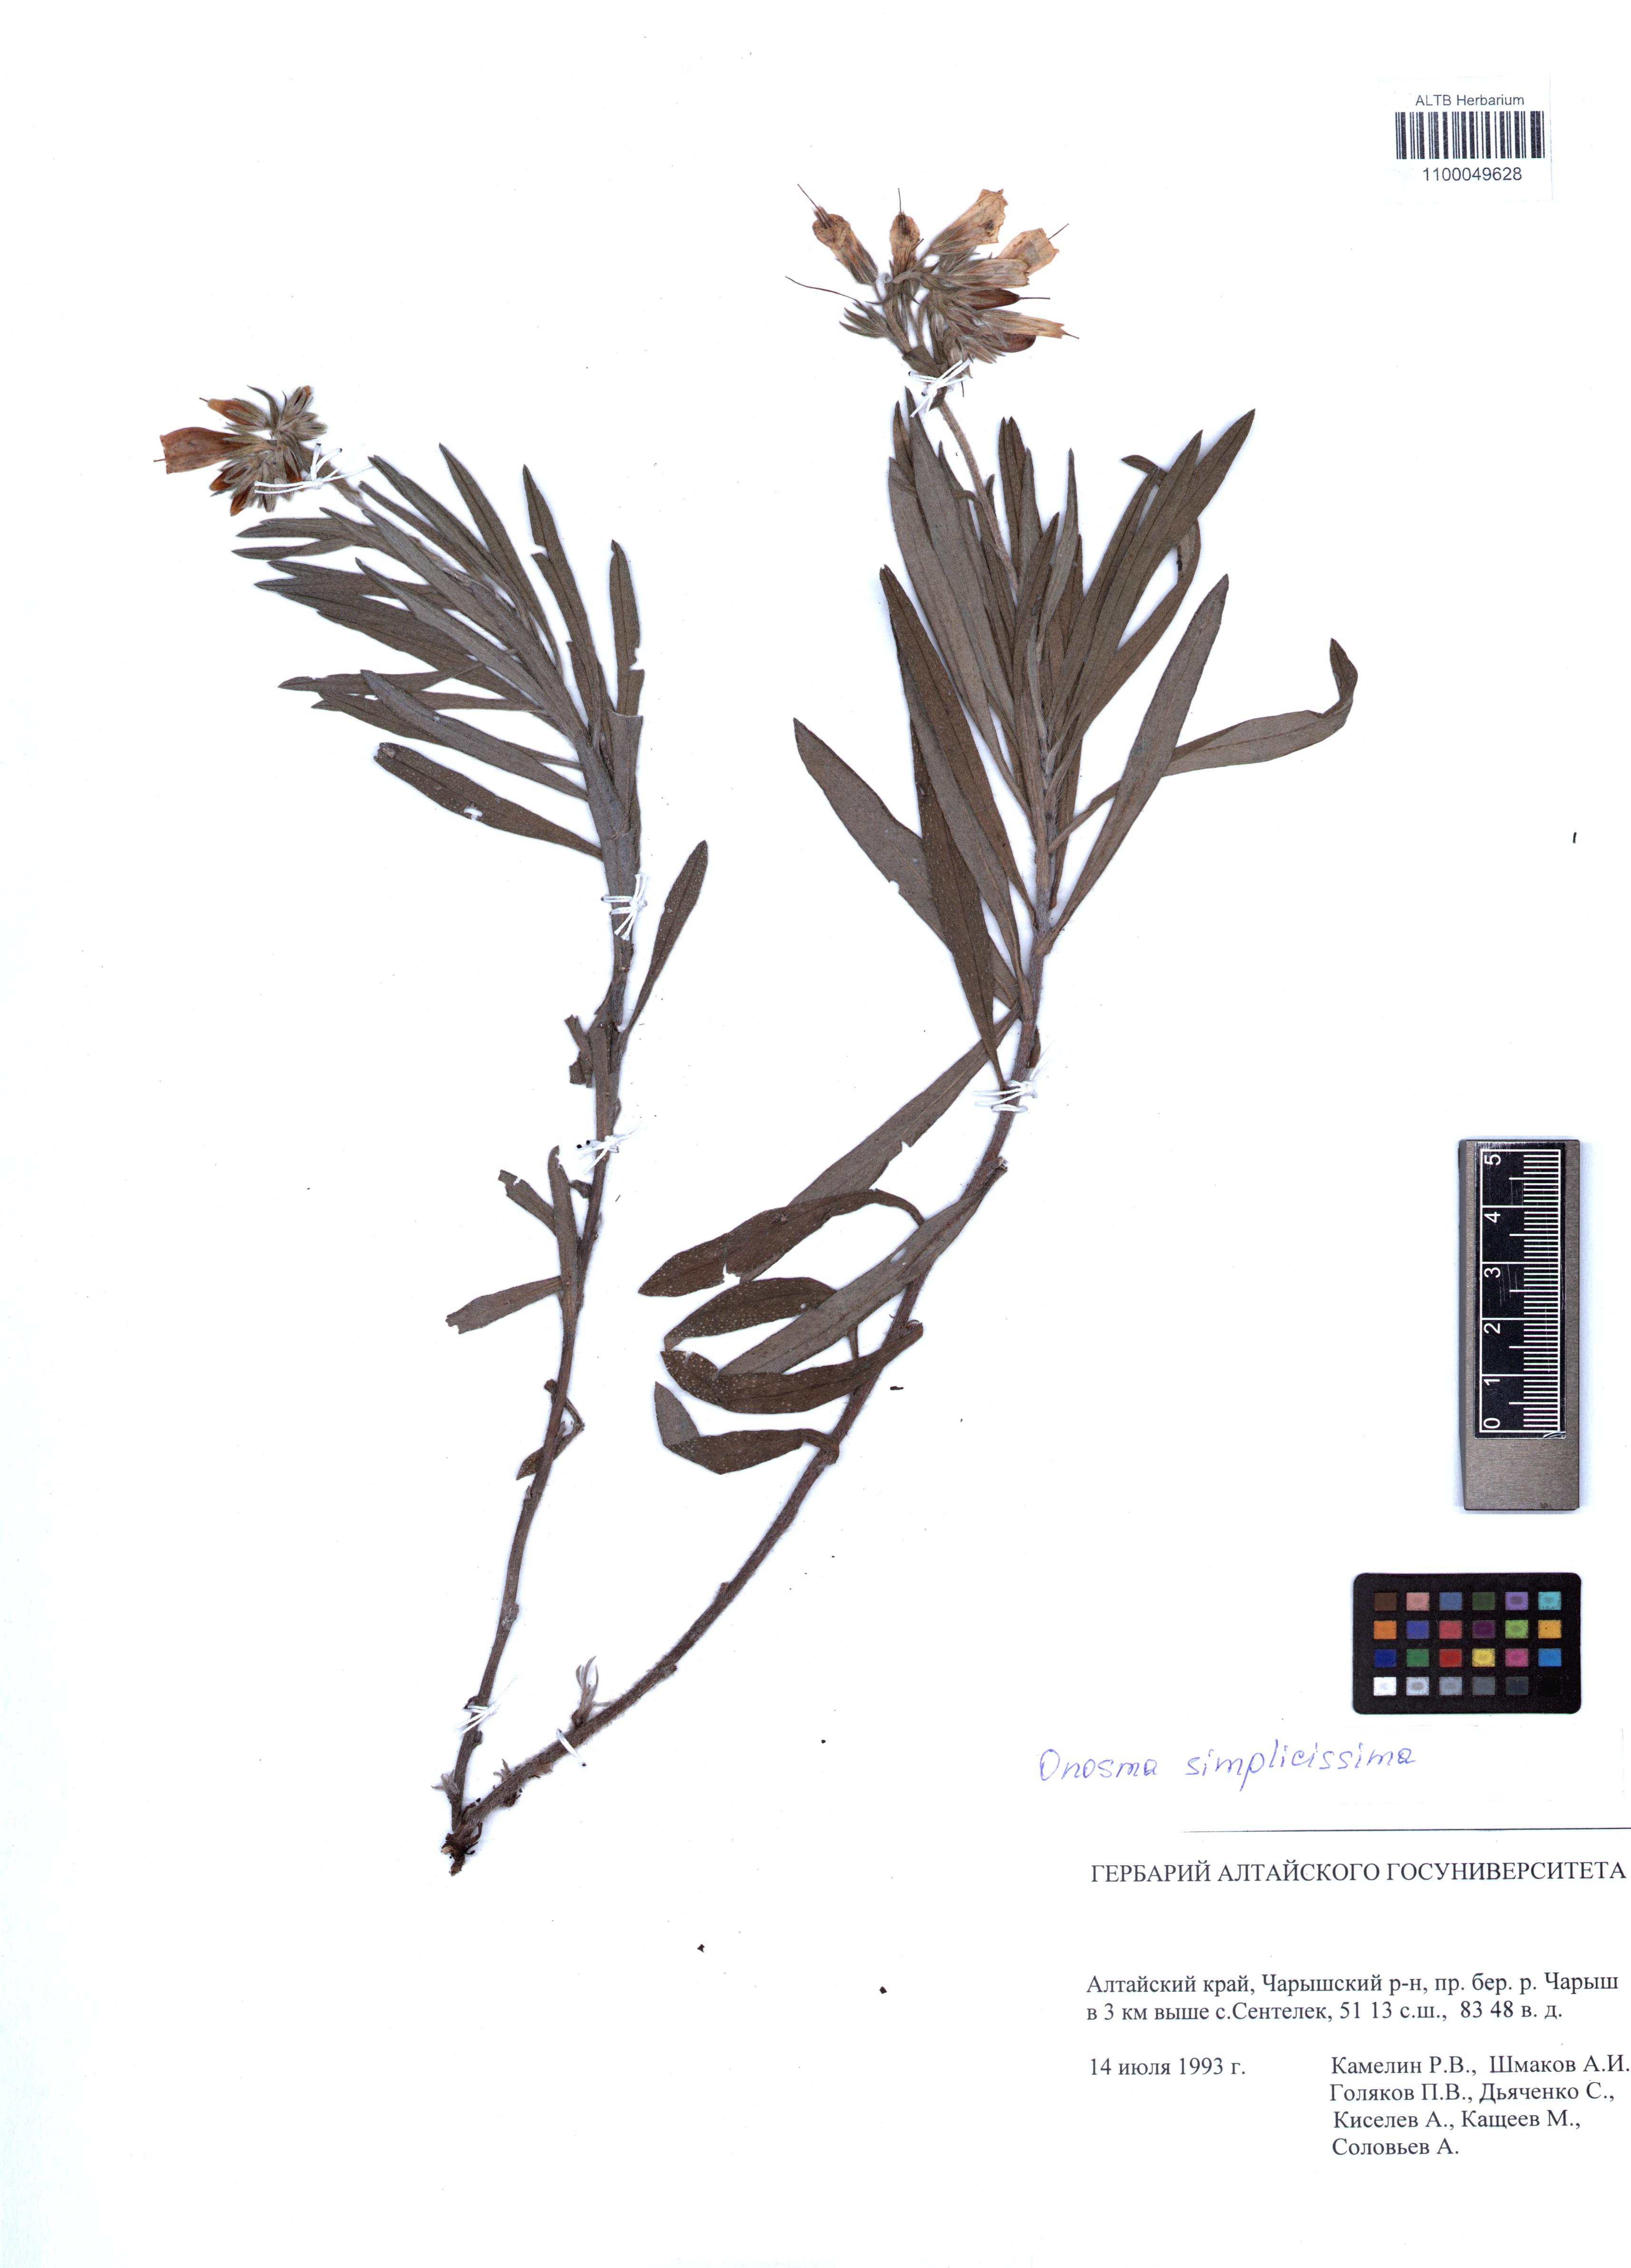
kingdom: Plantae
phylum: Tracheophyta
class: Magnoliopsida
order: Boraginales
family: Boraginaceae
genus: Onosma
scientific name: Onosma simplicissima
